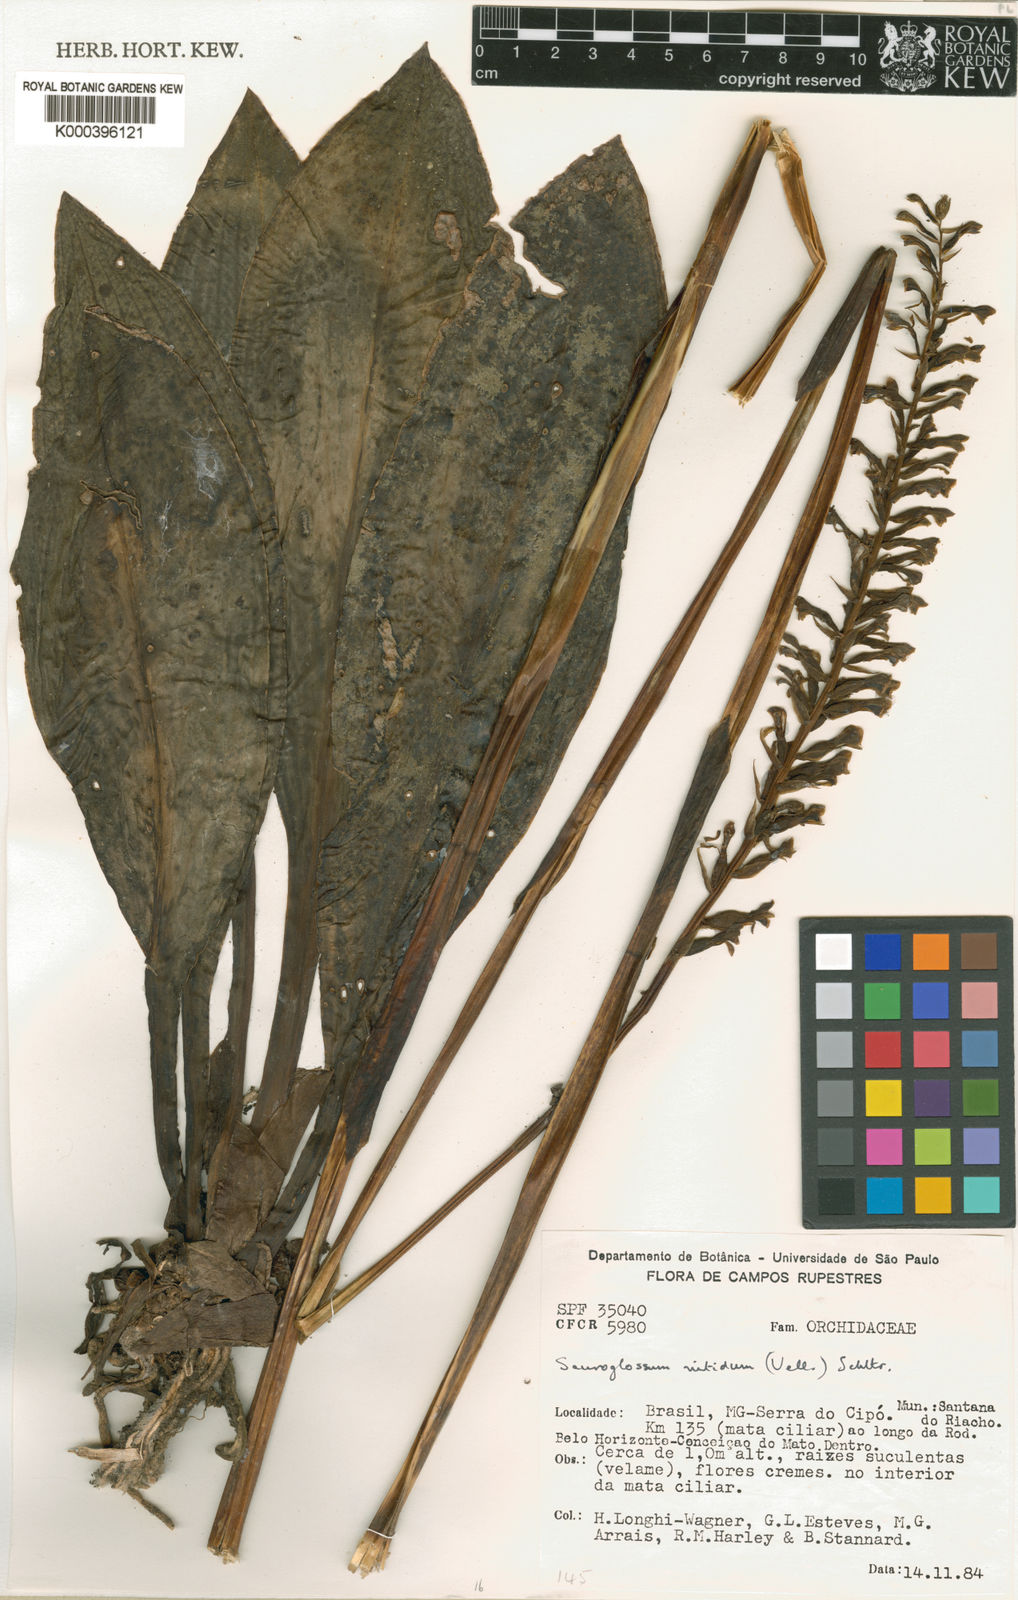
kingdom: Plantae
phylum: Tracheophyta
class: Liliopsida
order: Asparagales
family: Orchidaceae
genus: Sauroglossum
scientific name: Sauroglossum elatum
